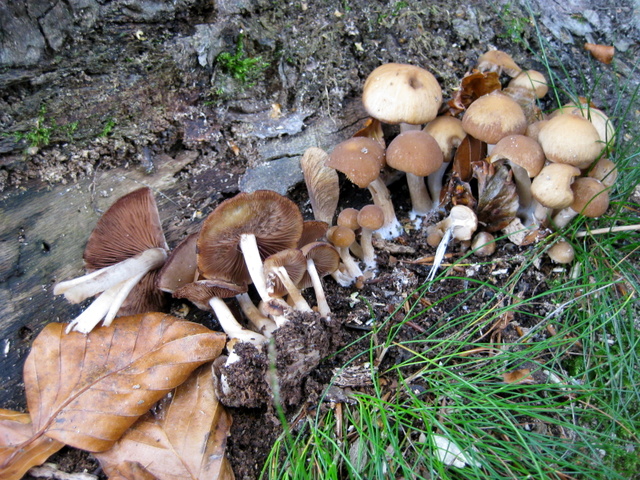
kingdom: Fungi
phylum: Basidiomycota
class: Agaricomycetes
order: Agaricales
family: Psathyrellaceae
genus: Psathyrella
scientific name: Psathyrella piluliformis
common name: lysstokket mørkhat
